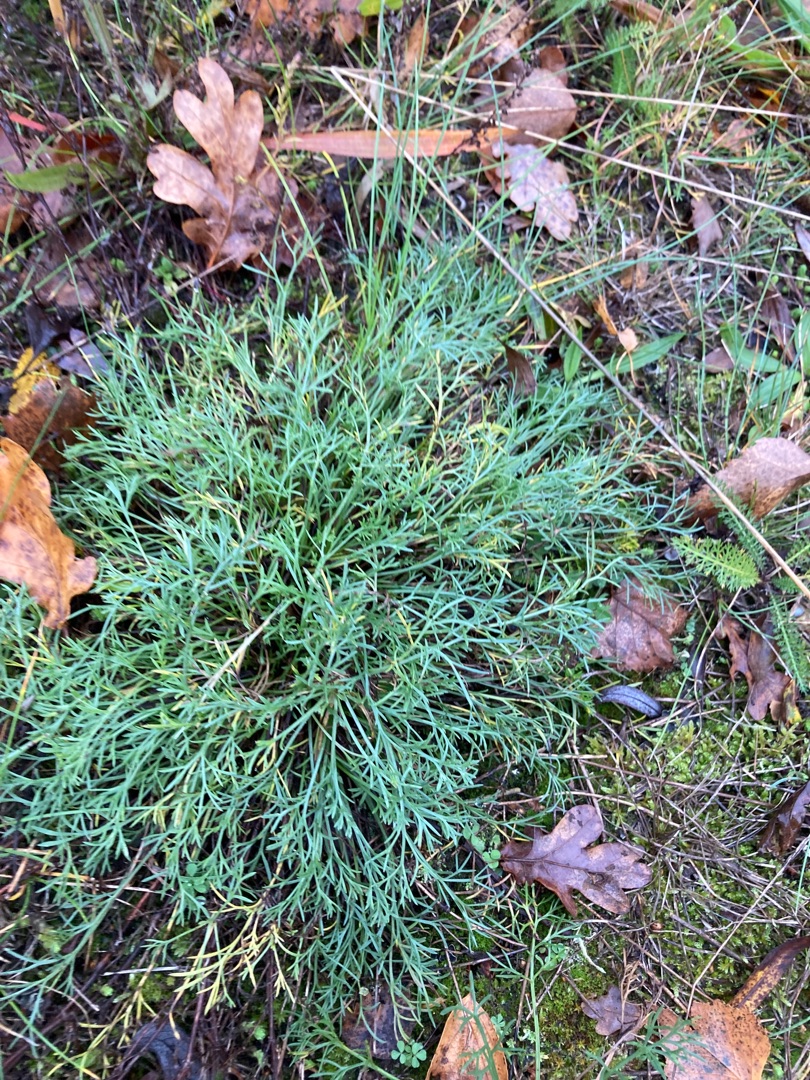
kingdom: Plantae
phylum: Tracheophyta
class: Magnoliopsida
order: Asterales
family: Asteraceae
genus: Artemisia
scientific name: Artemisia campestris
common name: Mark-bynke
